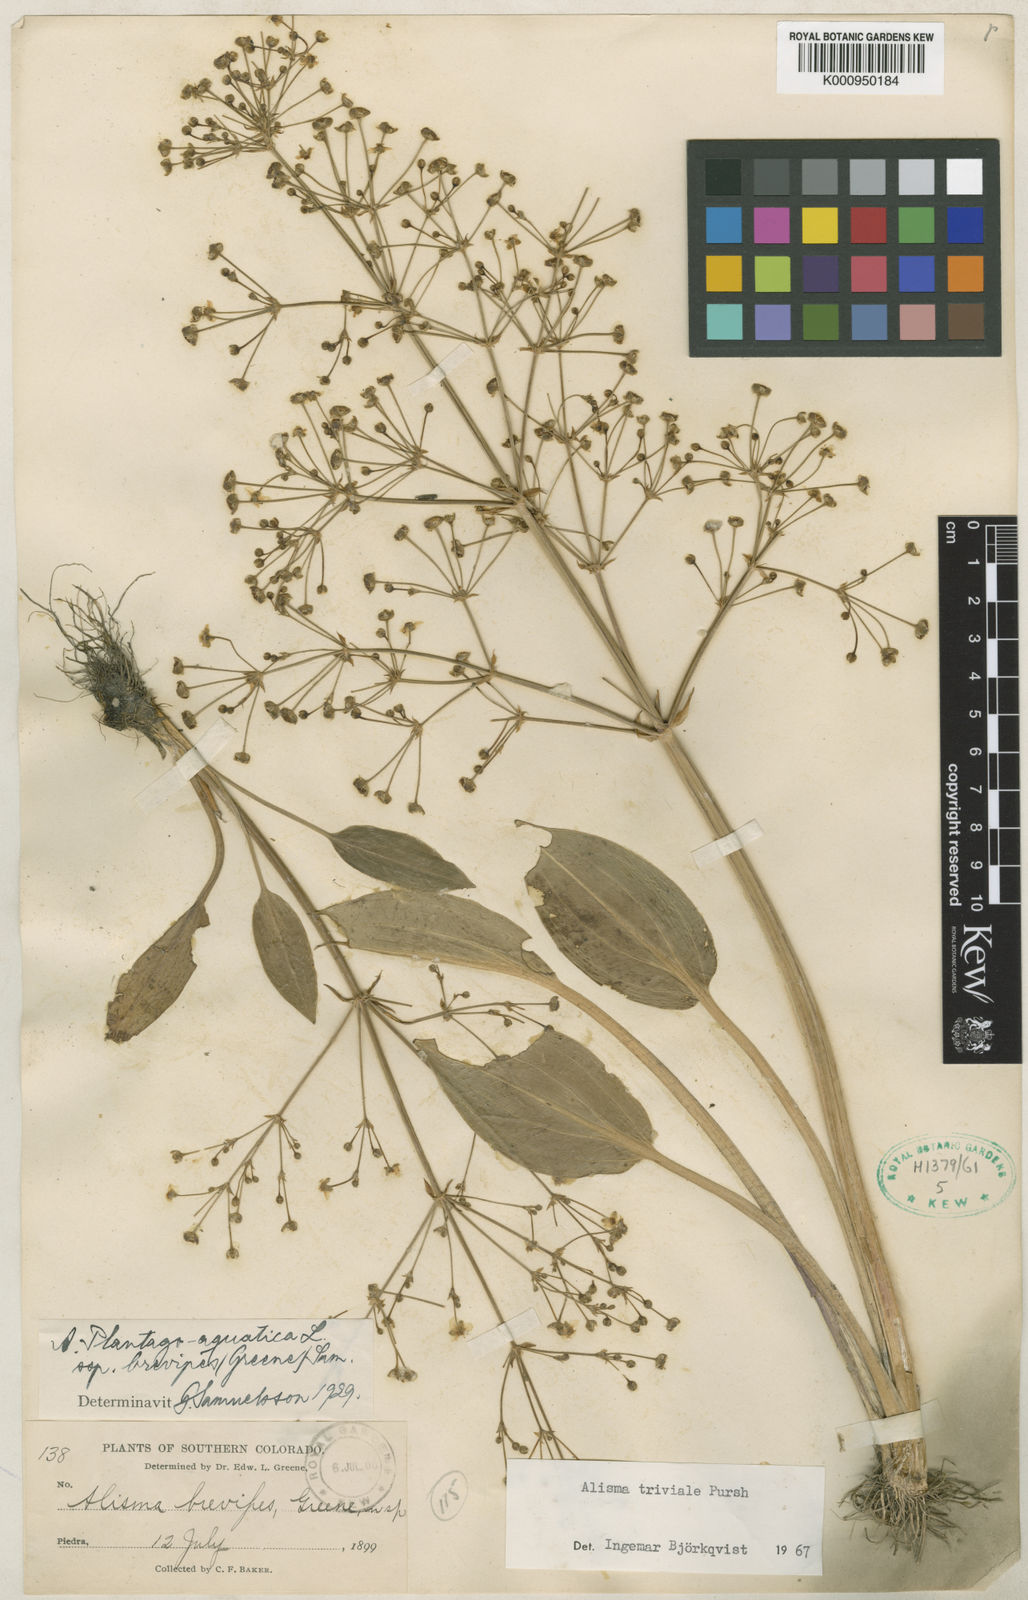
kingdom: Plantae
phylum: Tracheophyta
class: Liliopsida
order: Alismatales
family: Alismataceae
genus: Alisma
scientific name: Alisma triviale
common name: Northern water-plantain
